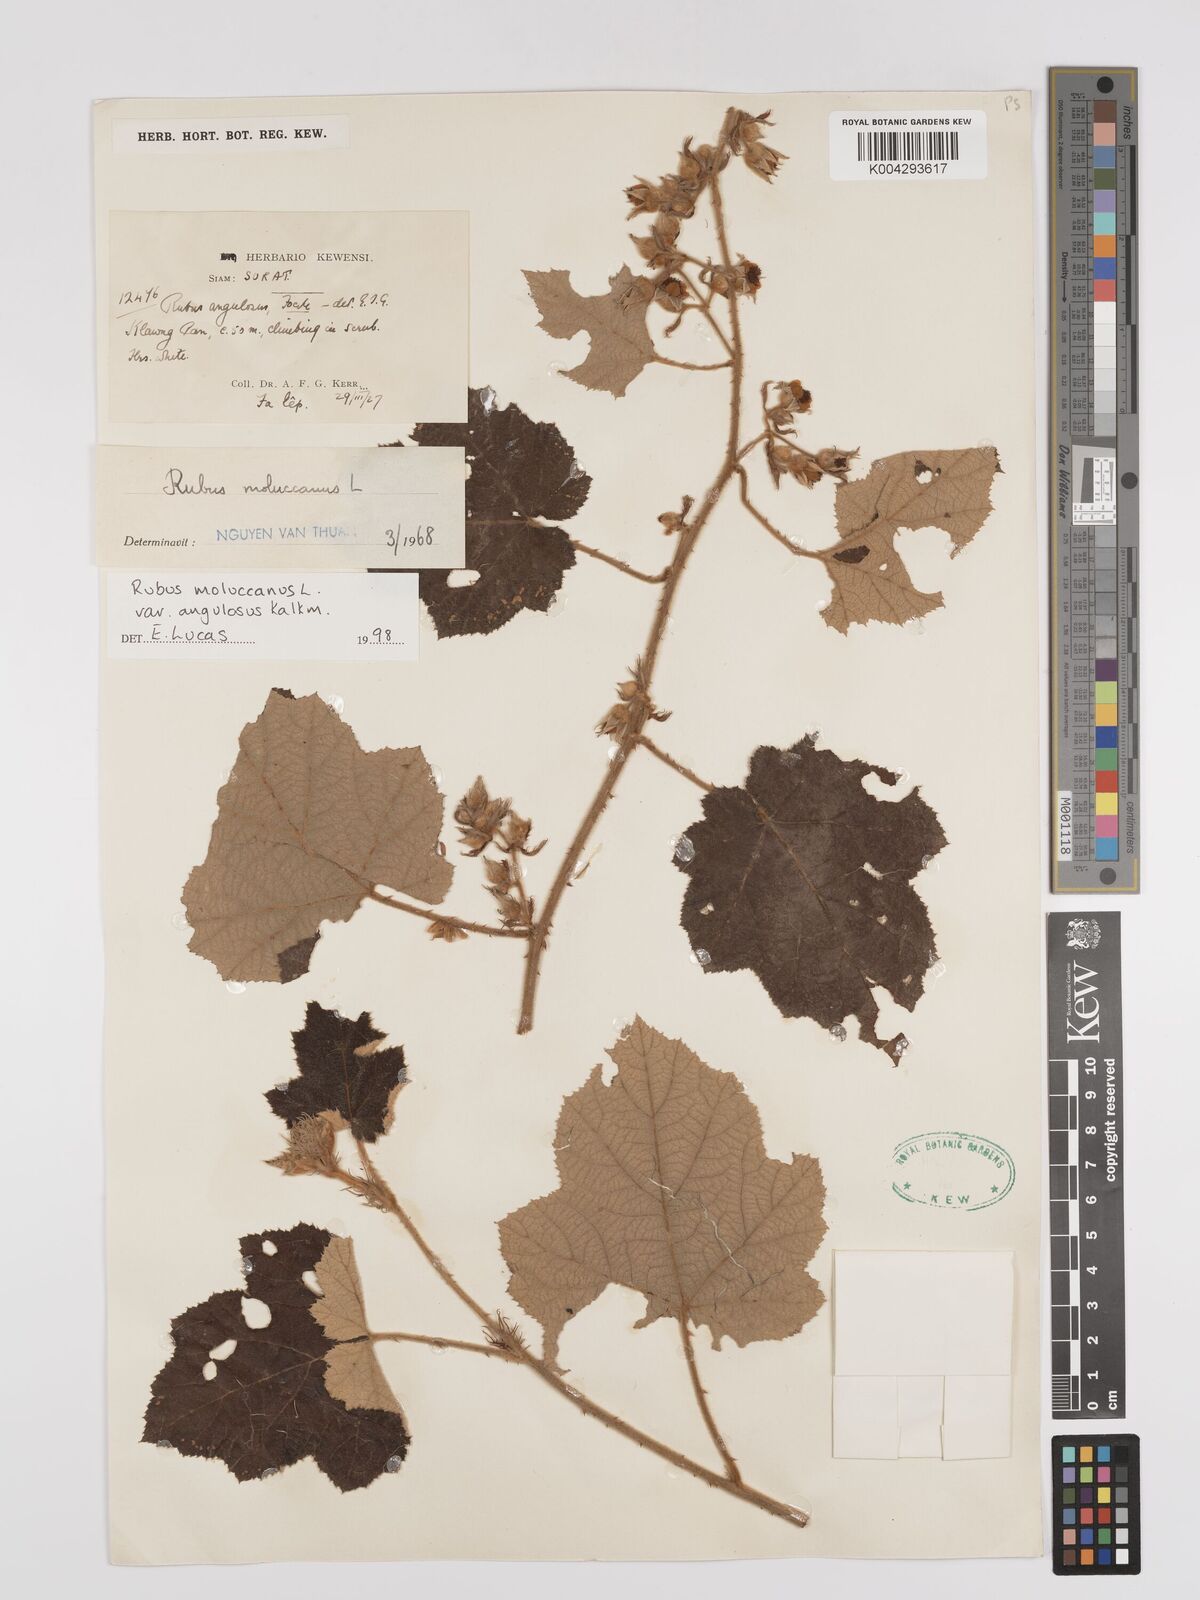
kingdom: Plantae
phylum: Tracheophyta
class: Magnoliopsida
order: Rosales
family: Rosaceae
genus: Rubus
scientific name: Rubus moluccanus
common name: Wild raspberry
